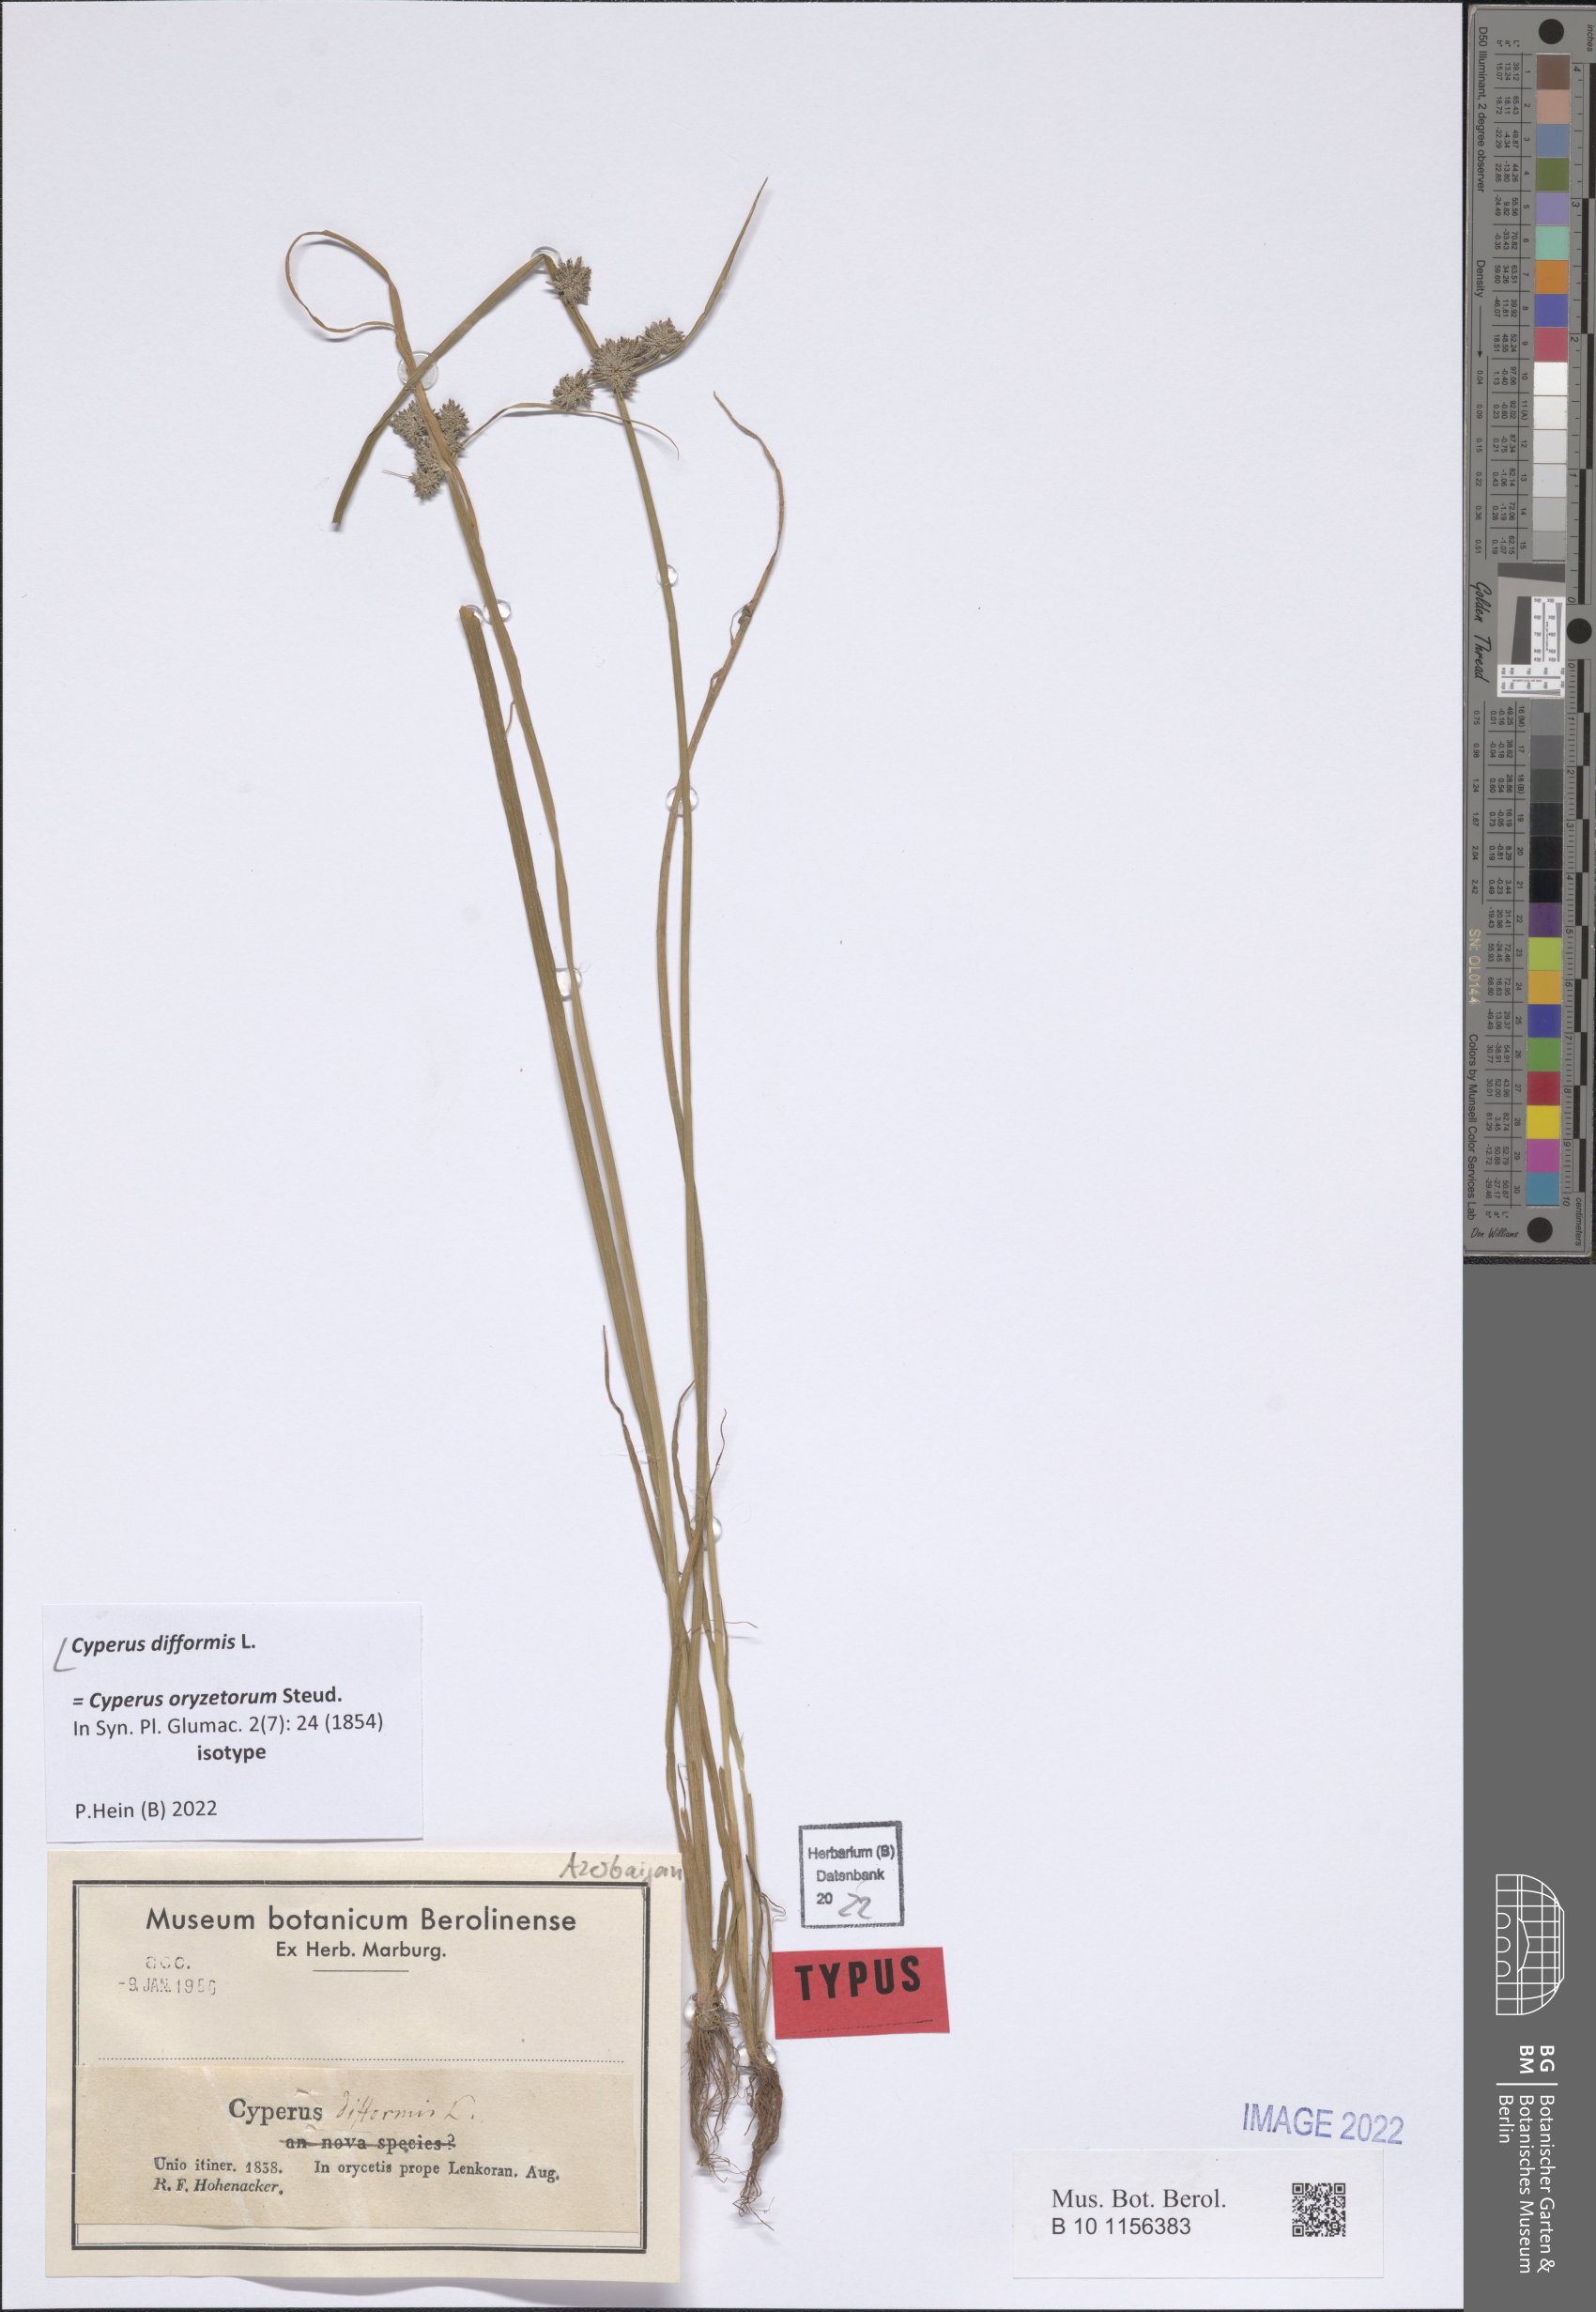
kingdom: Plantae
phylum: Tracheophyta
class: Liliopsida
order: Poales
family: Cyperaceae
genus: Cyperus
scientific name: Cyperus difformis
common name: Variable flatsedge
